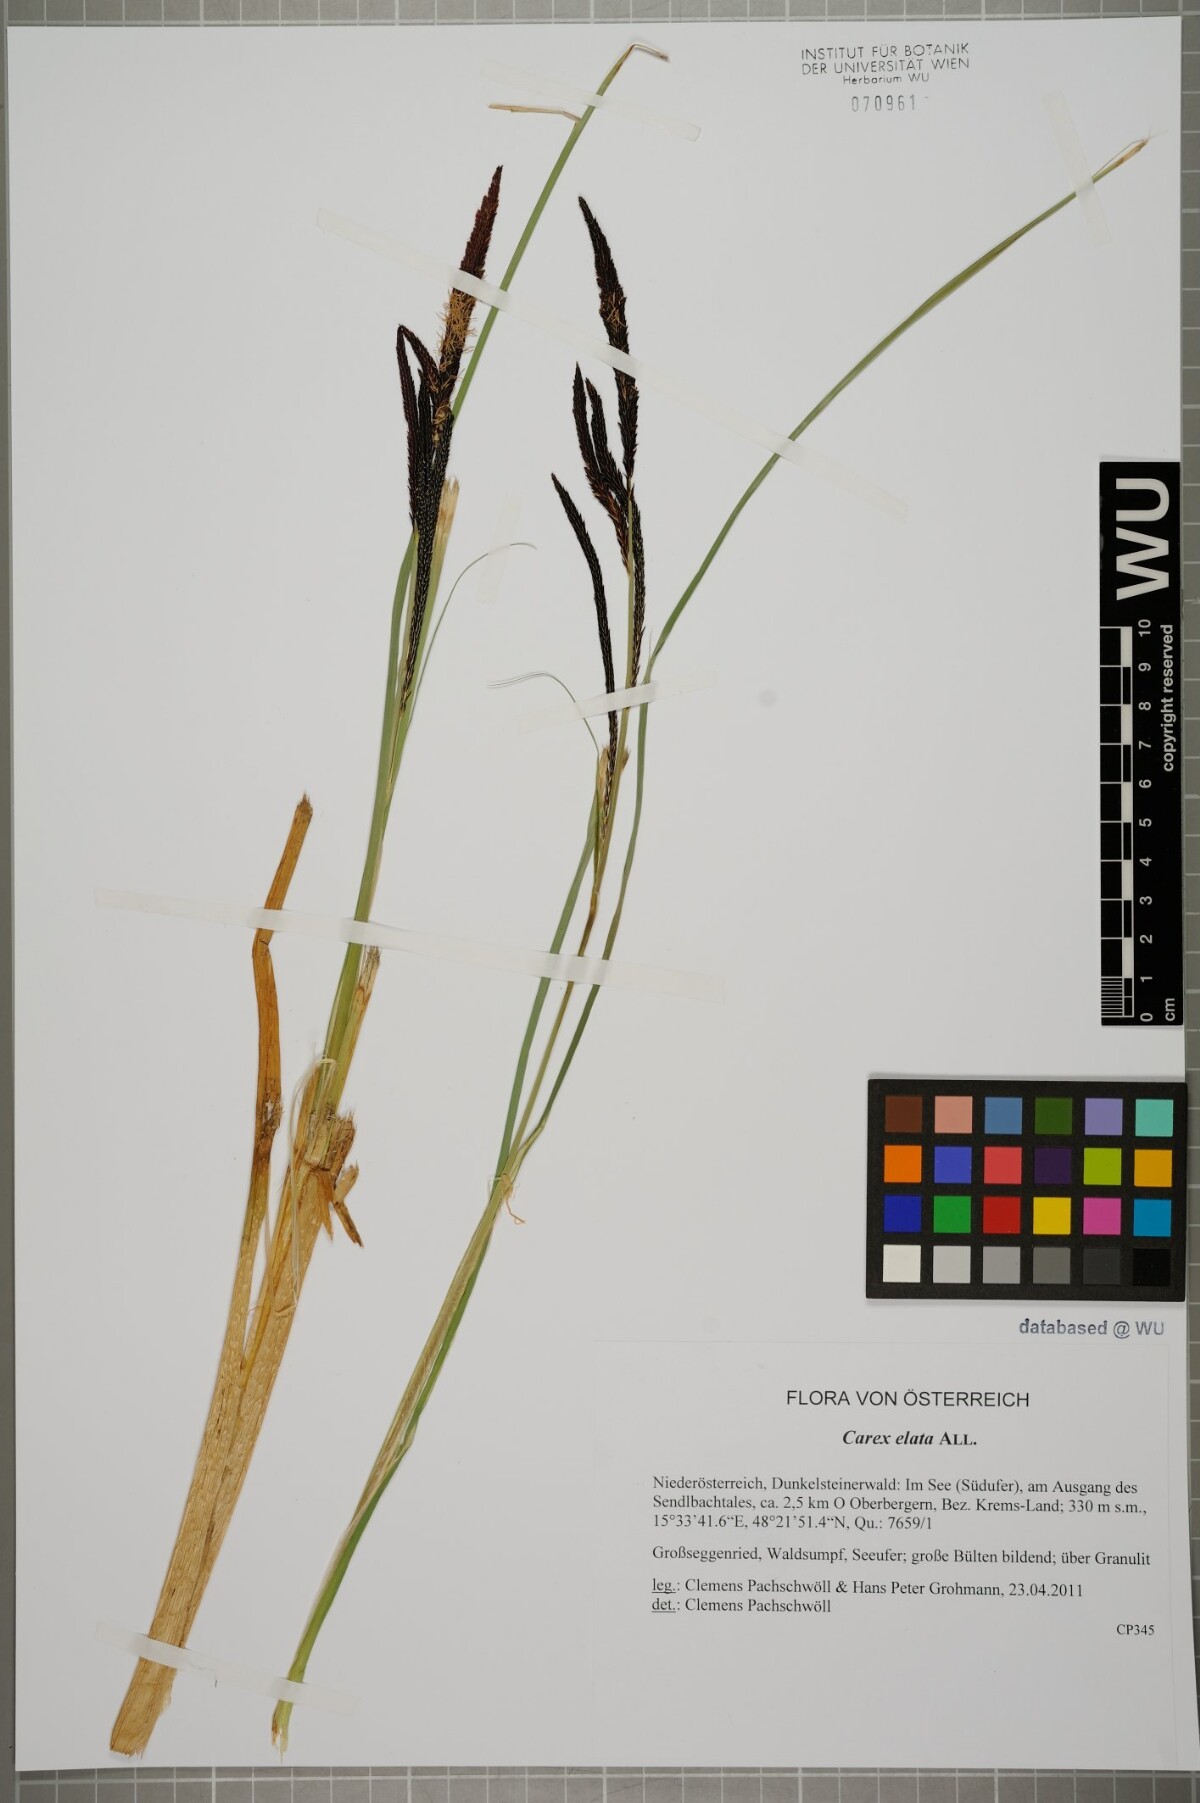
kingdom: Plantae
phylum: Tracheophyta
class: Liliopsida
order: Poales
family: Cyperaceae
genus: Carex
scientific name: Carex elata
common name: Tufted sedge
